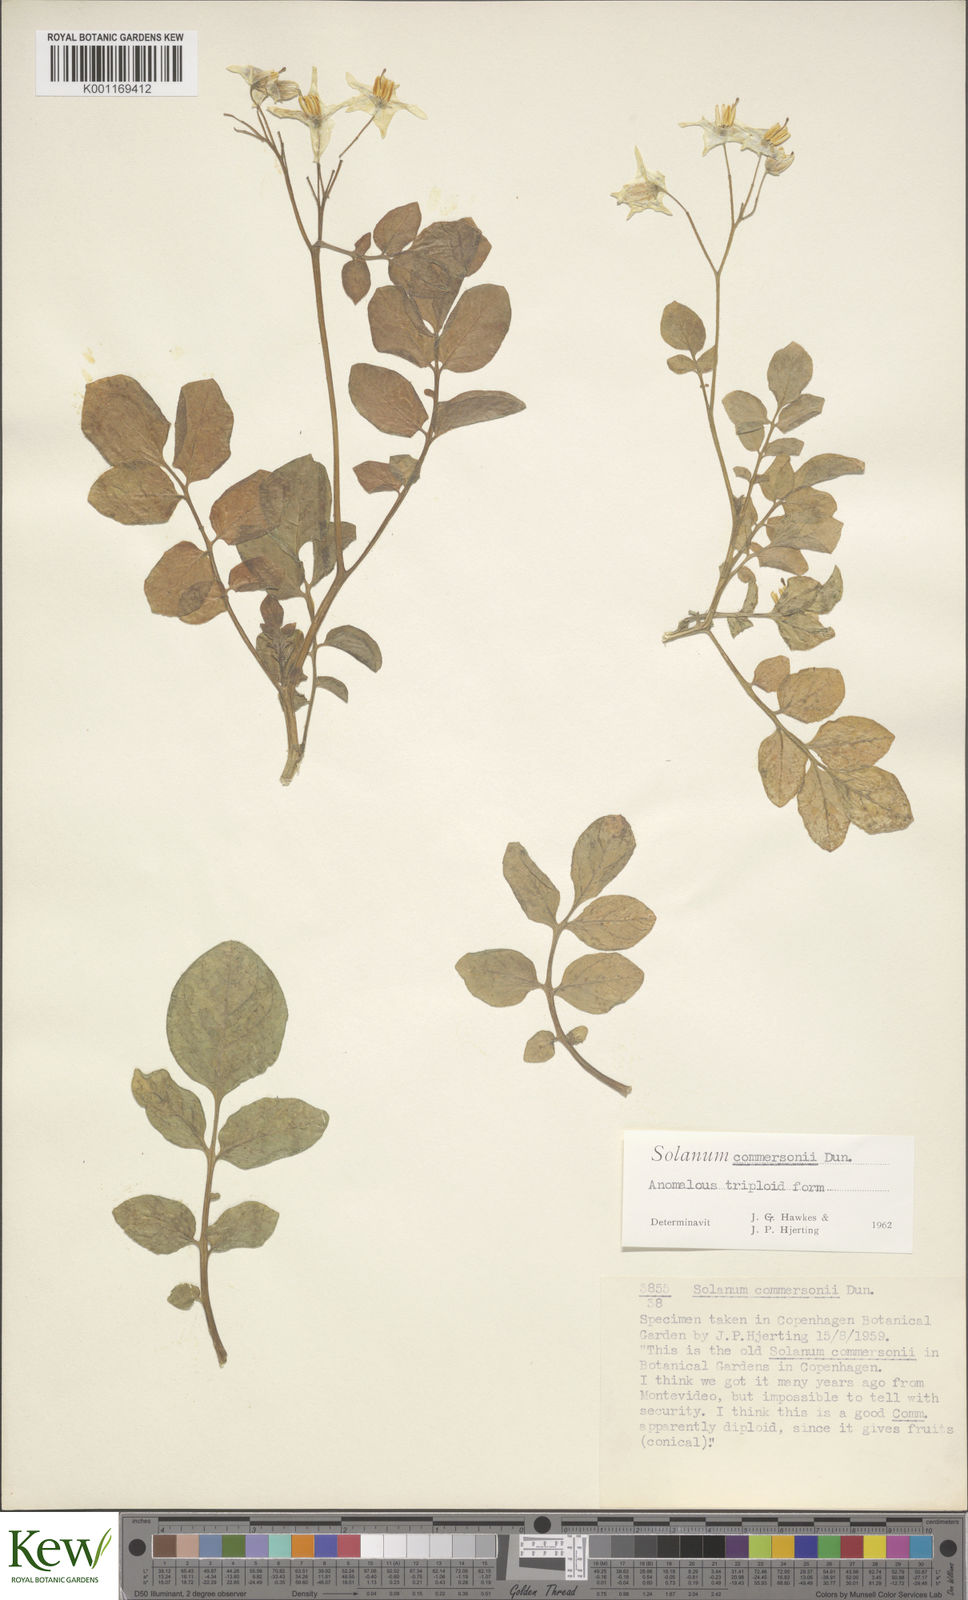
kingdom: Plantae
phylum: Tracheophyta
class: Magnoliopsida
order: Solanales
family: Solanaceae
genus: Solanum
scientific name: Solanum commersonii
